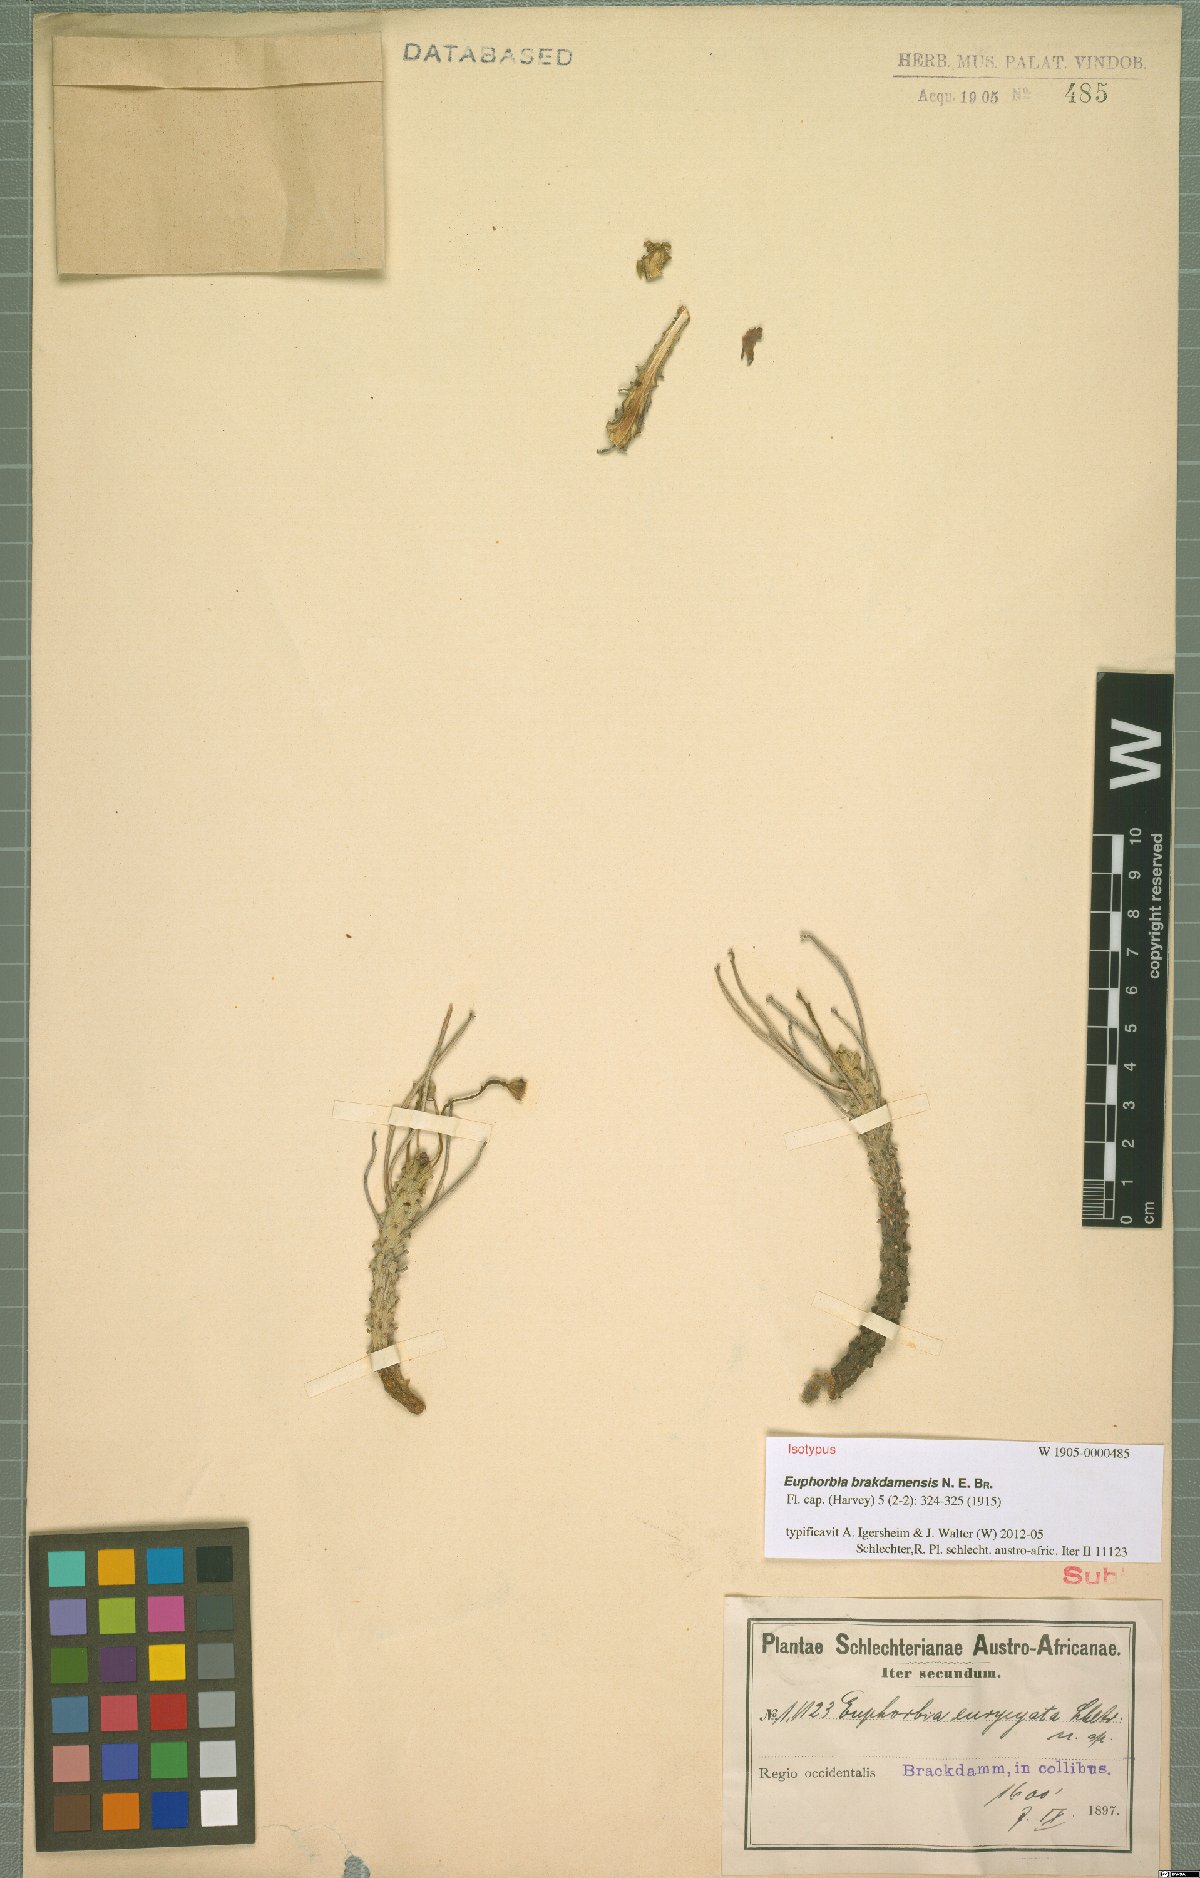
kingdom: Plantae
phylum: Tracheophyta
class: Magnoliopsida
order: Malpighiales
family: Euphorbiaceae
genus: Euphorbia
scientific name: Euphorbia brakdamensis
